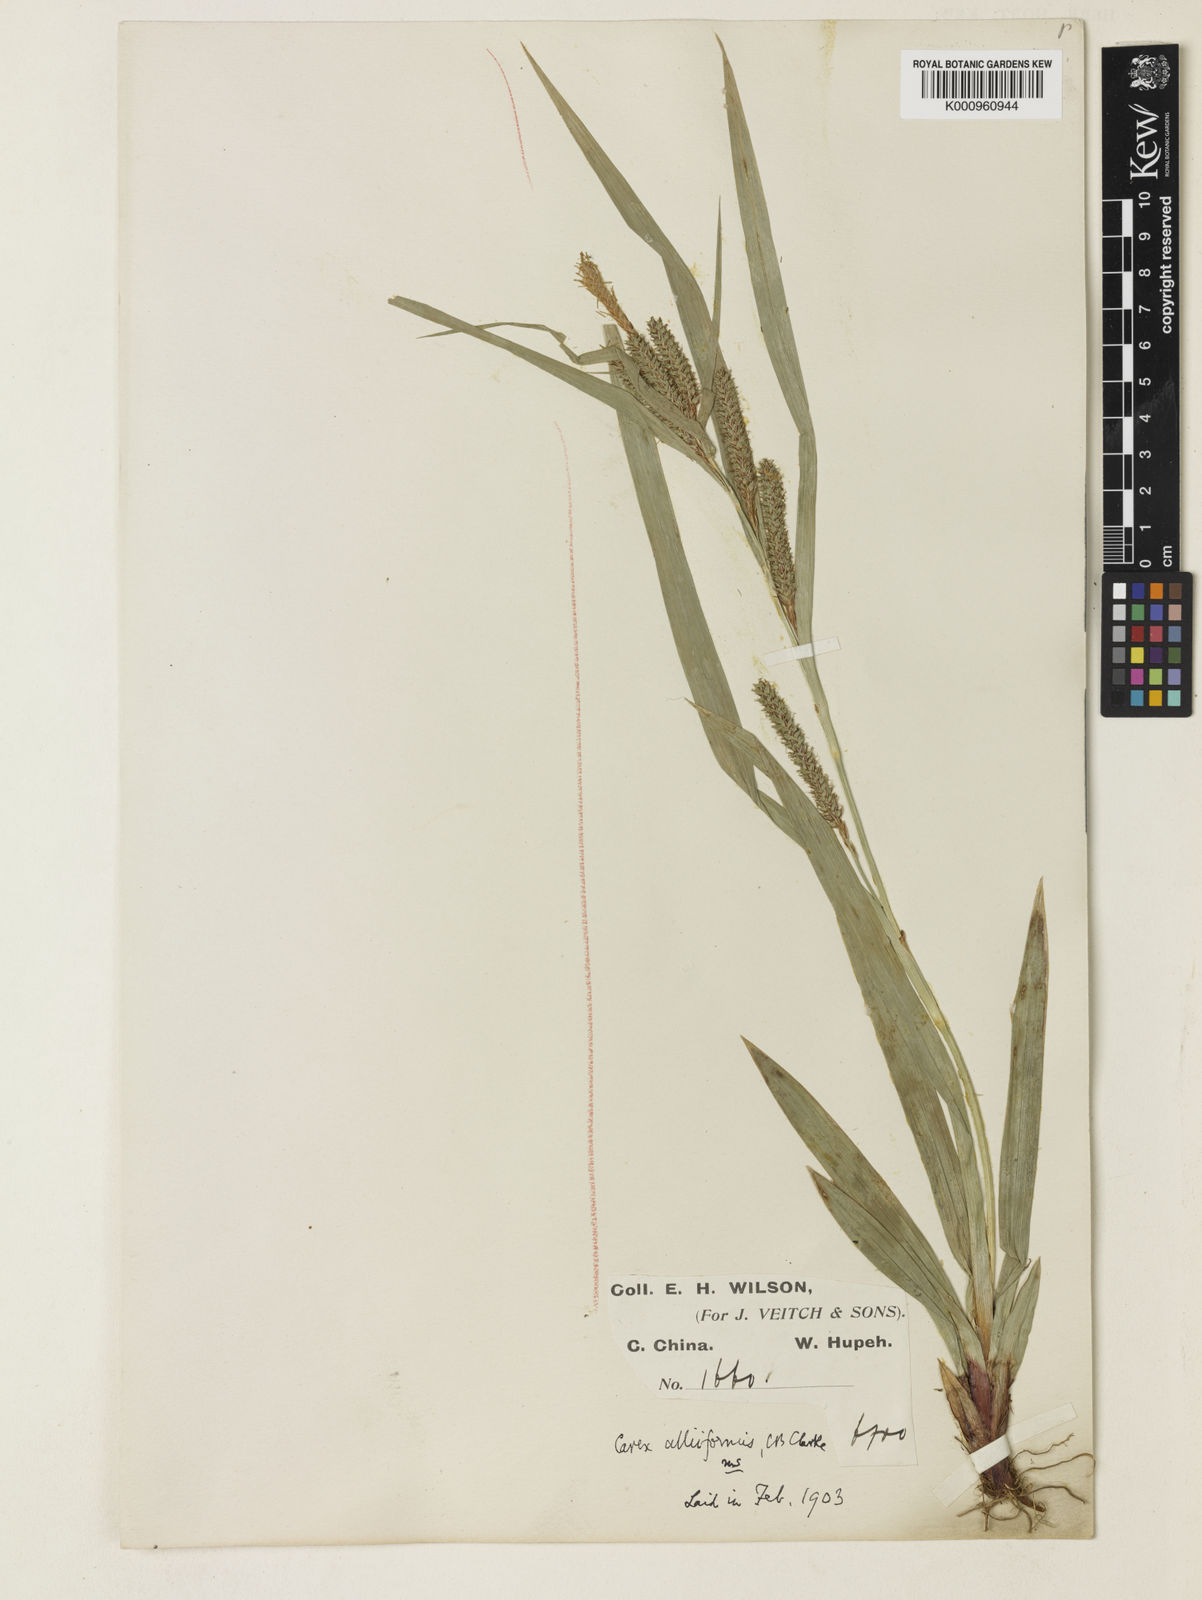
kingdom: Plantae
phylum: Tracheophyta
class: Liliopsida
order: Poales
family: Cyperaceae
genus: Carex
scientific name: Carex alliiformis
